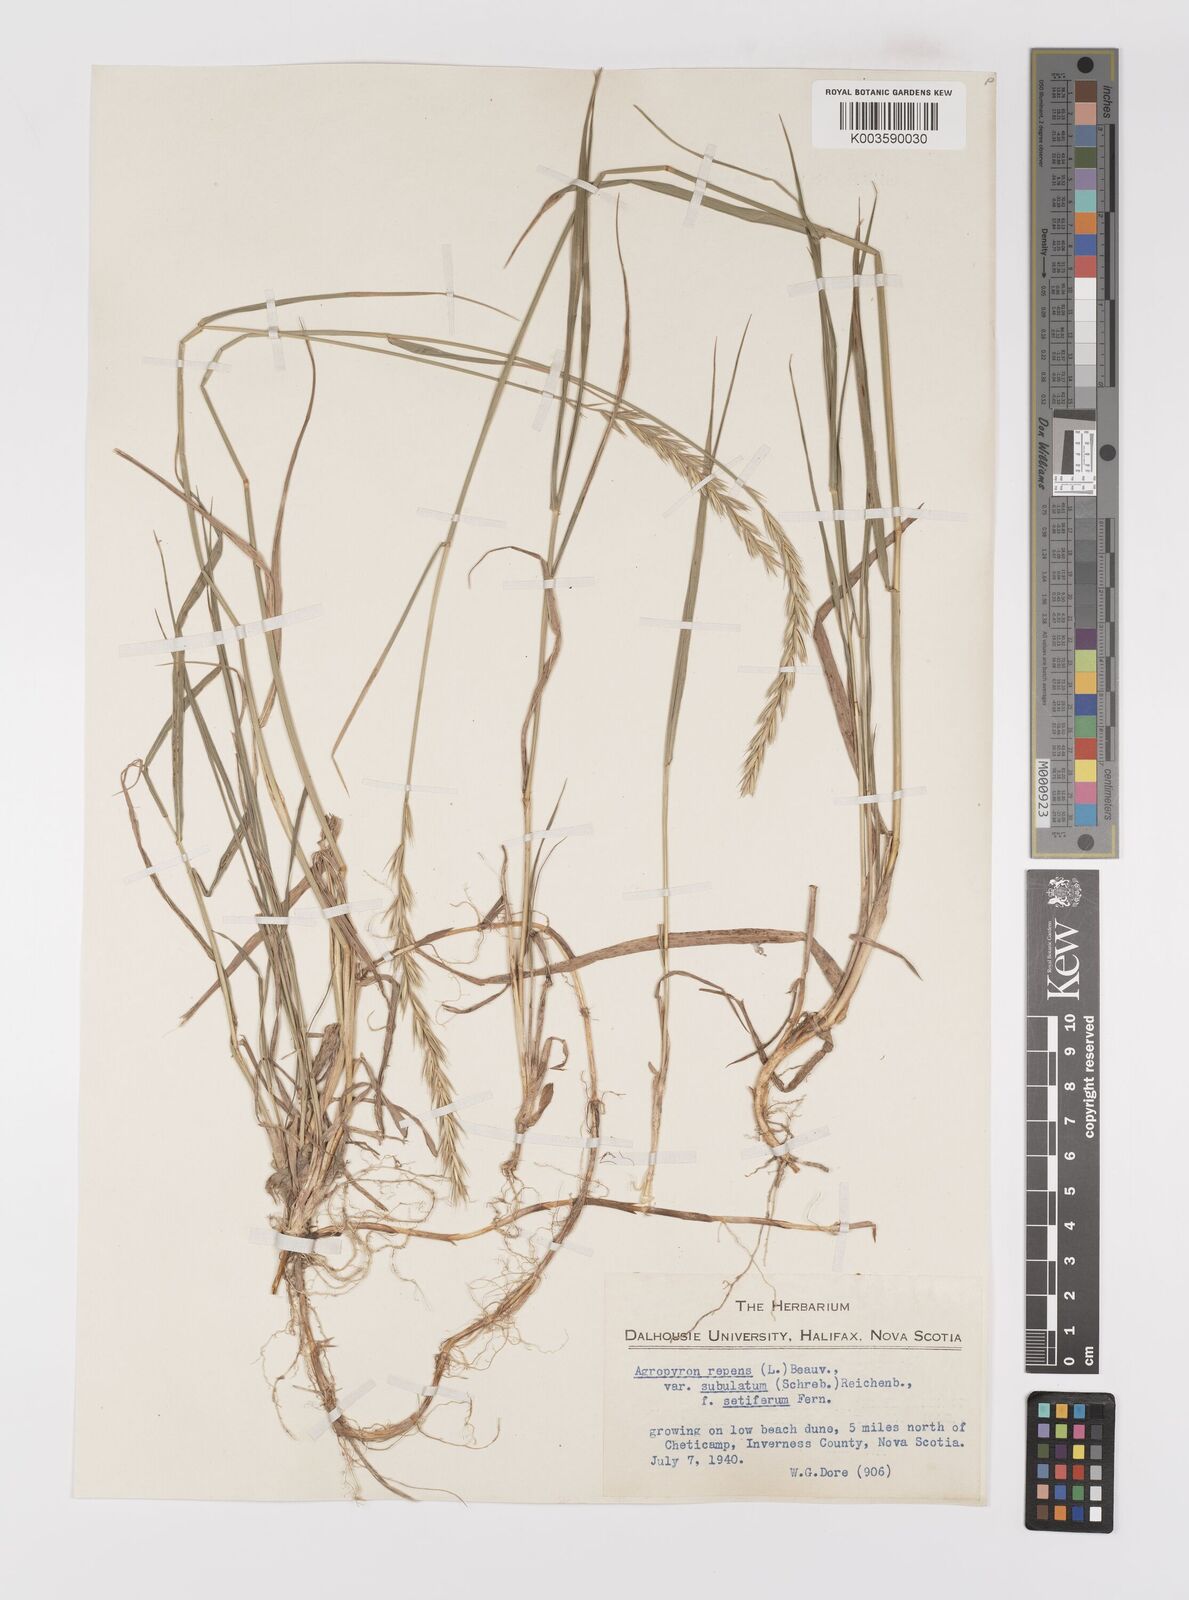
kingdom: Plantae
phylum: Tracheophyta
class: Liliopsida
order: Poales
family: Poaceae
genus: Elymus
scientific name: Elymus repens
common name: Quackgrass
